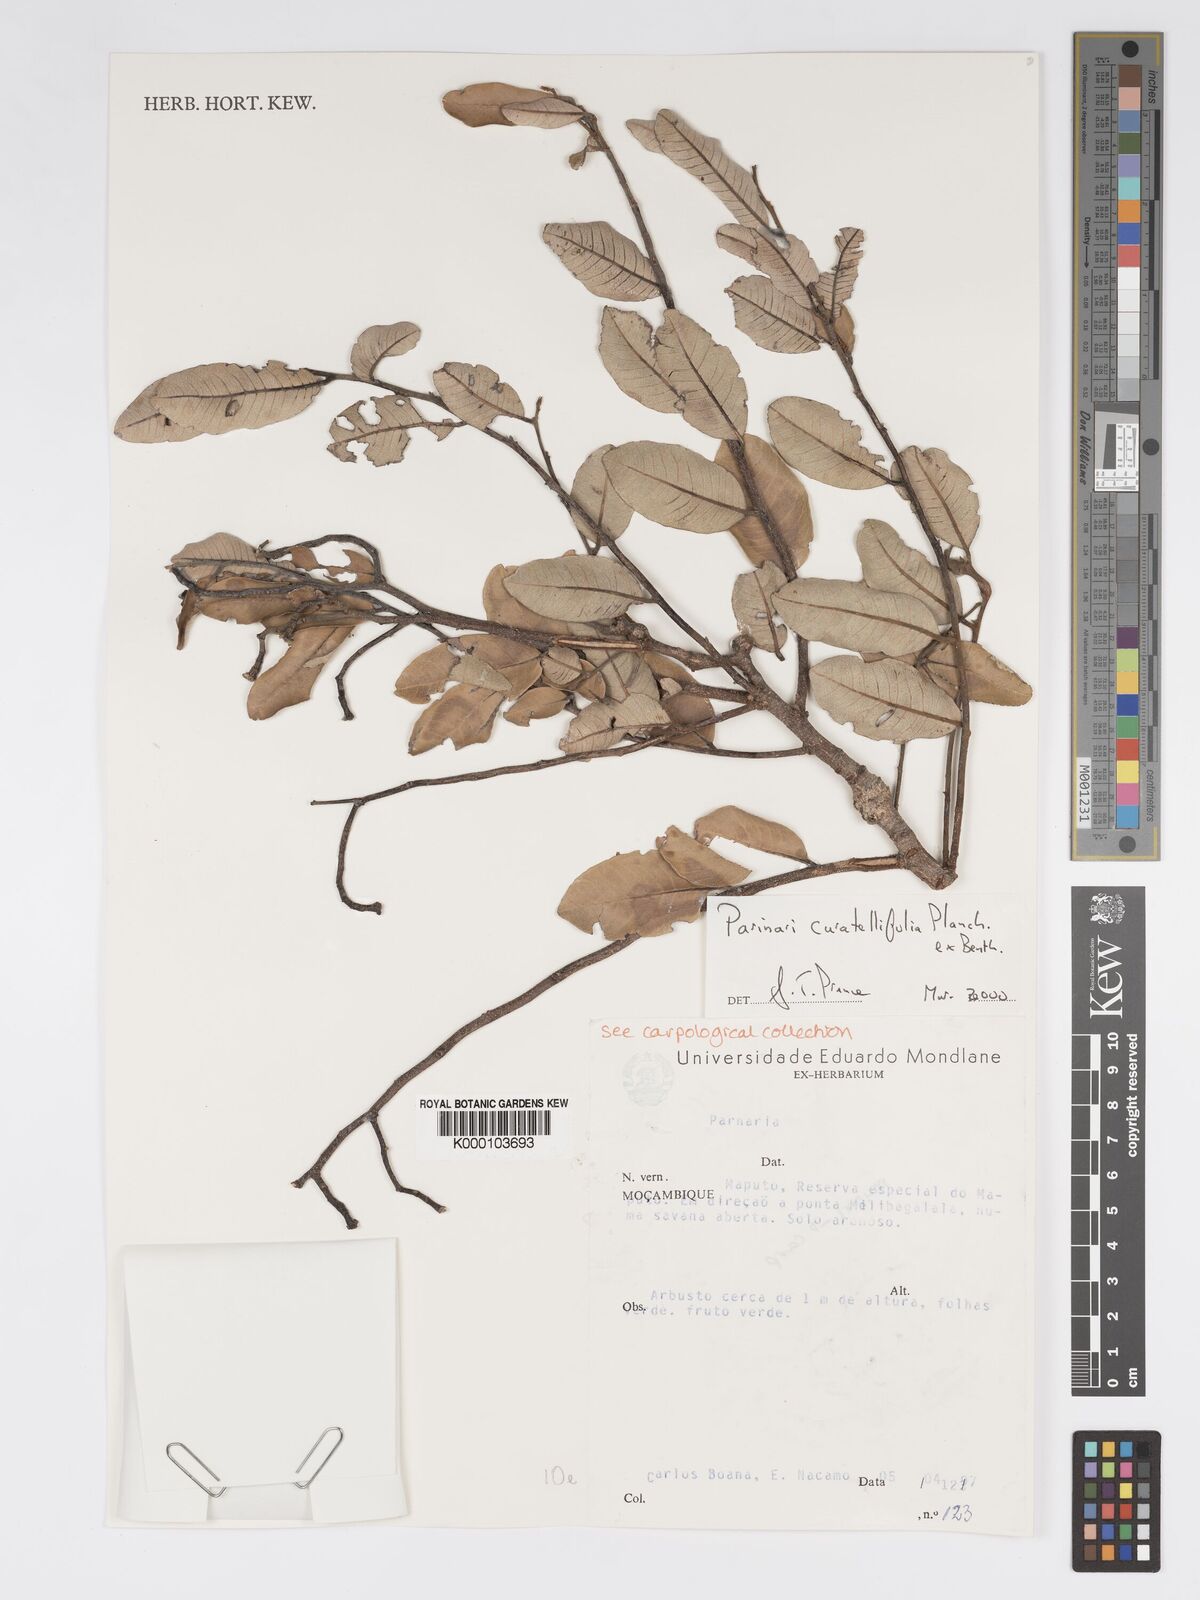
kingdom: Plantae
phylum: Tracheophyta
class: Magnoliopsida
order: Malpighiales
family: Chrysobalanaceae
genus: Parinari
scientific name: Parinari curatellifolia
